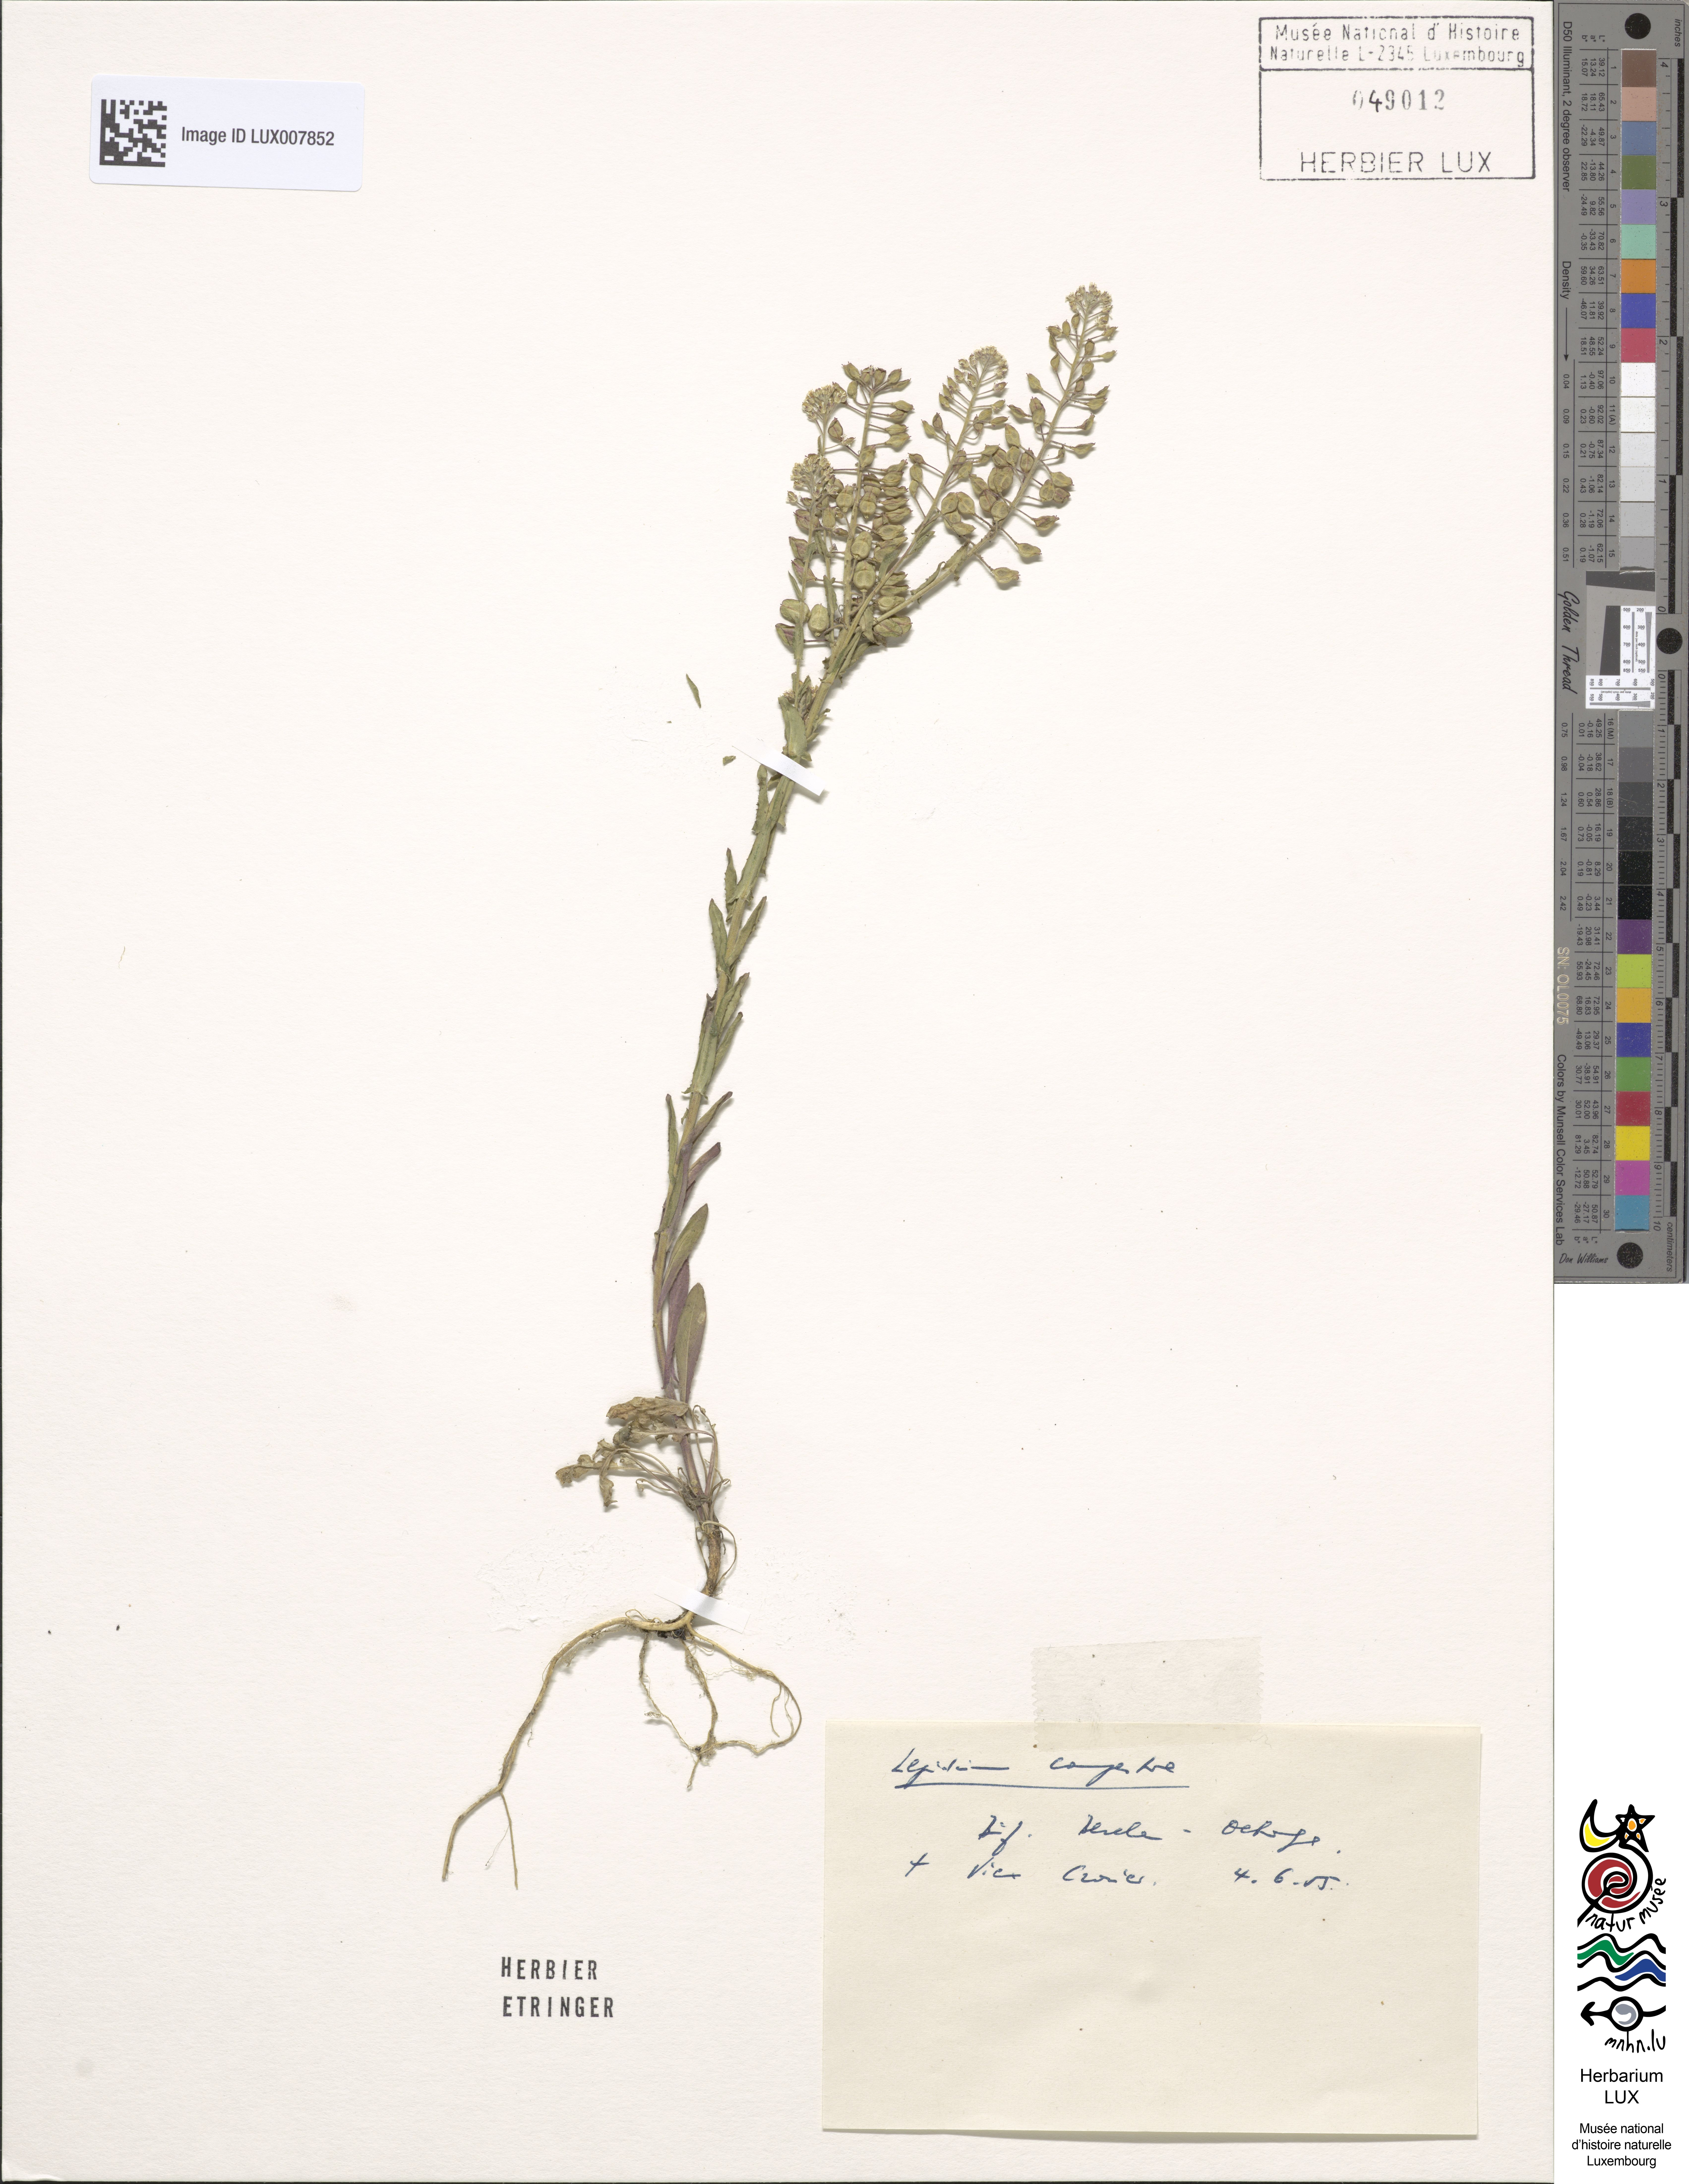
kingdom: Plantae
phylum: Tracheophyta
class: Magnoliopsida
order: Brassicales
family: Brassicaceae
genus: Lepidium
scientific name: Lepidium campestre
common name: Field pepperwort
